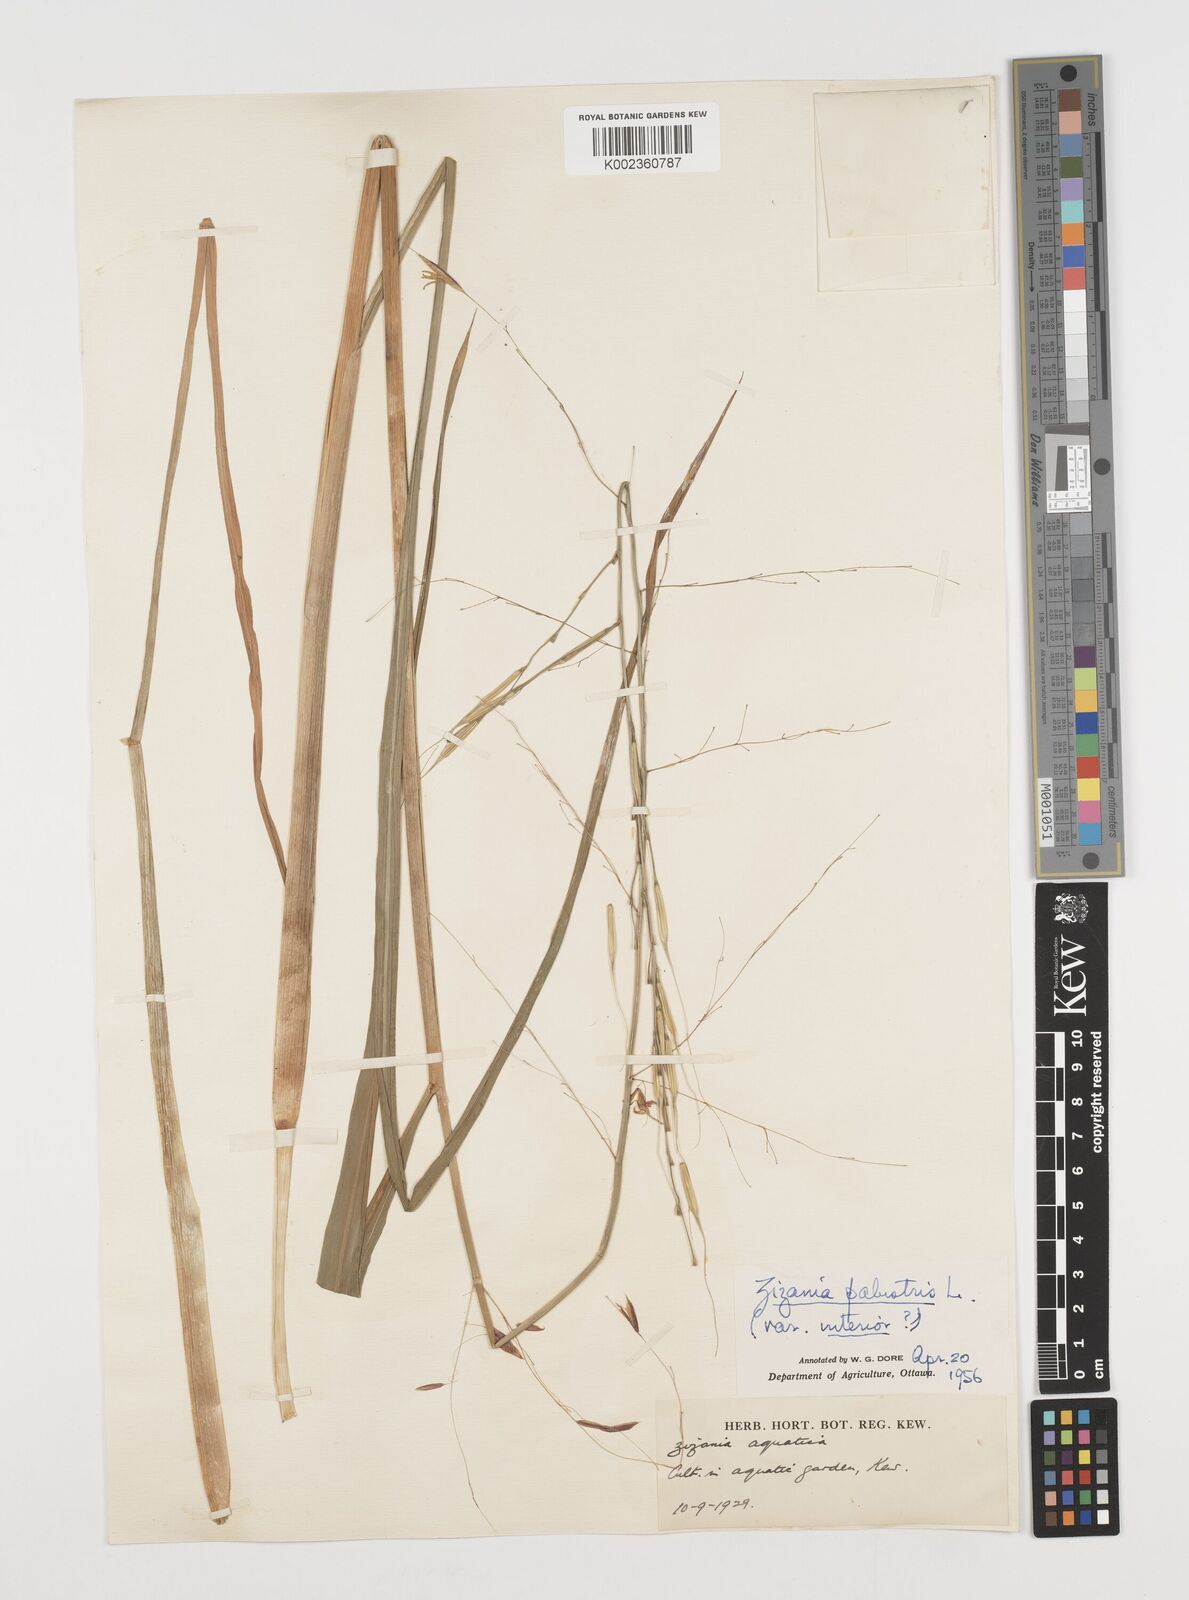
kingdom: Plantae
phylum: Tracheophyta
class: Liliopsida
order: Poales
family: Poaceae
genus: Zizania
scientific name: Zizania aquatica
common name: Annual wildrice
